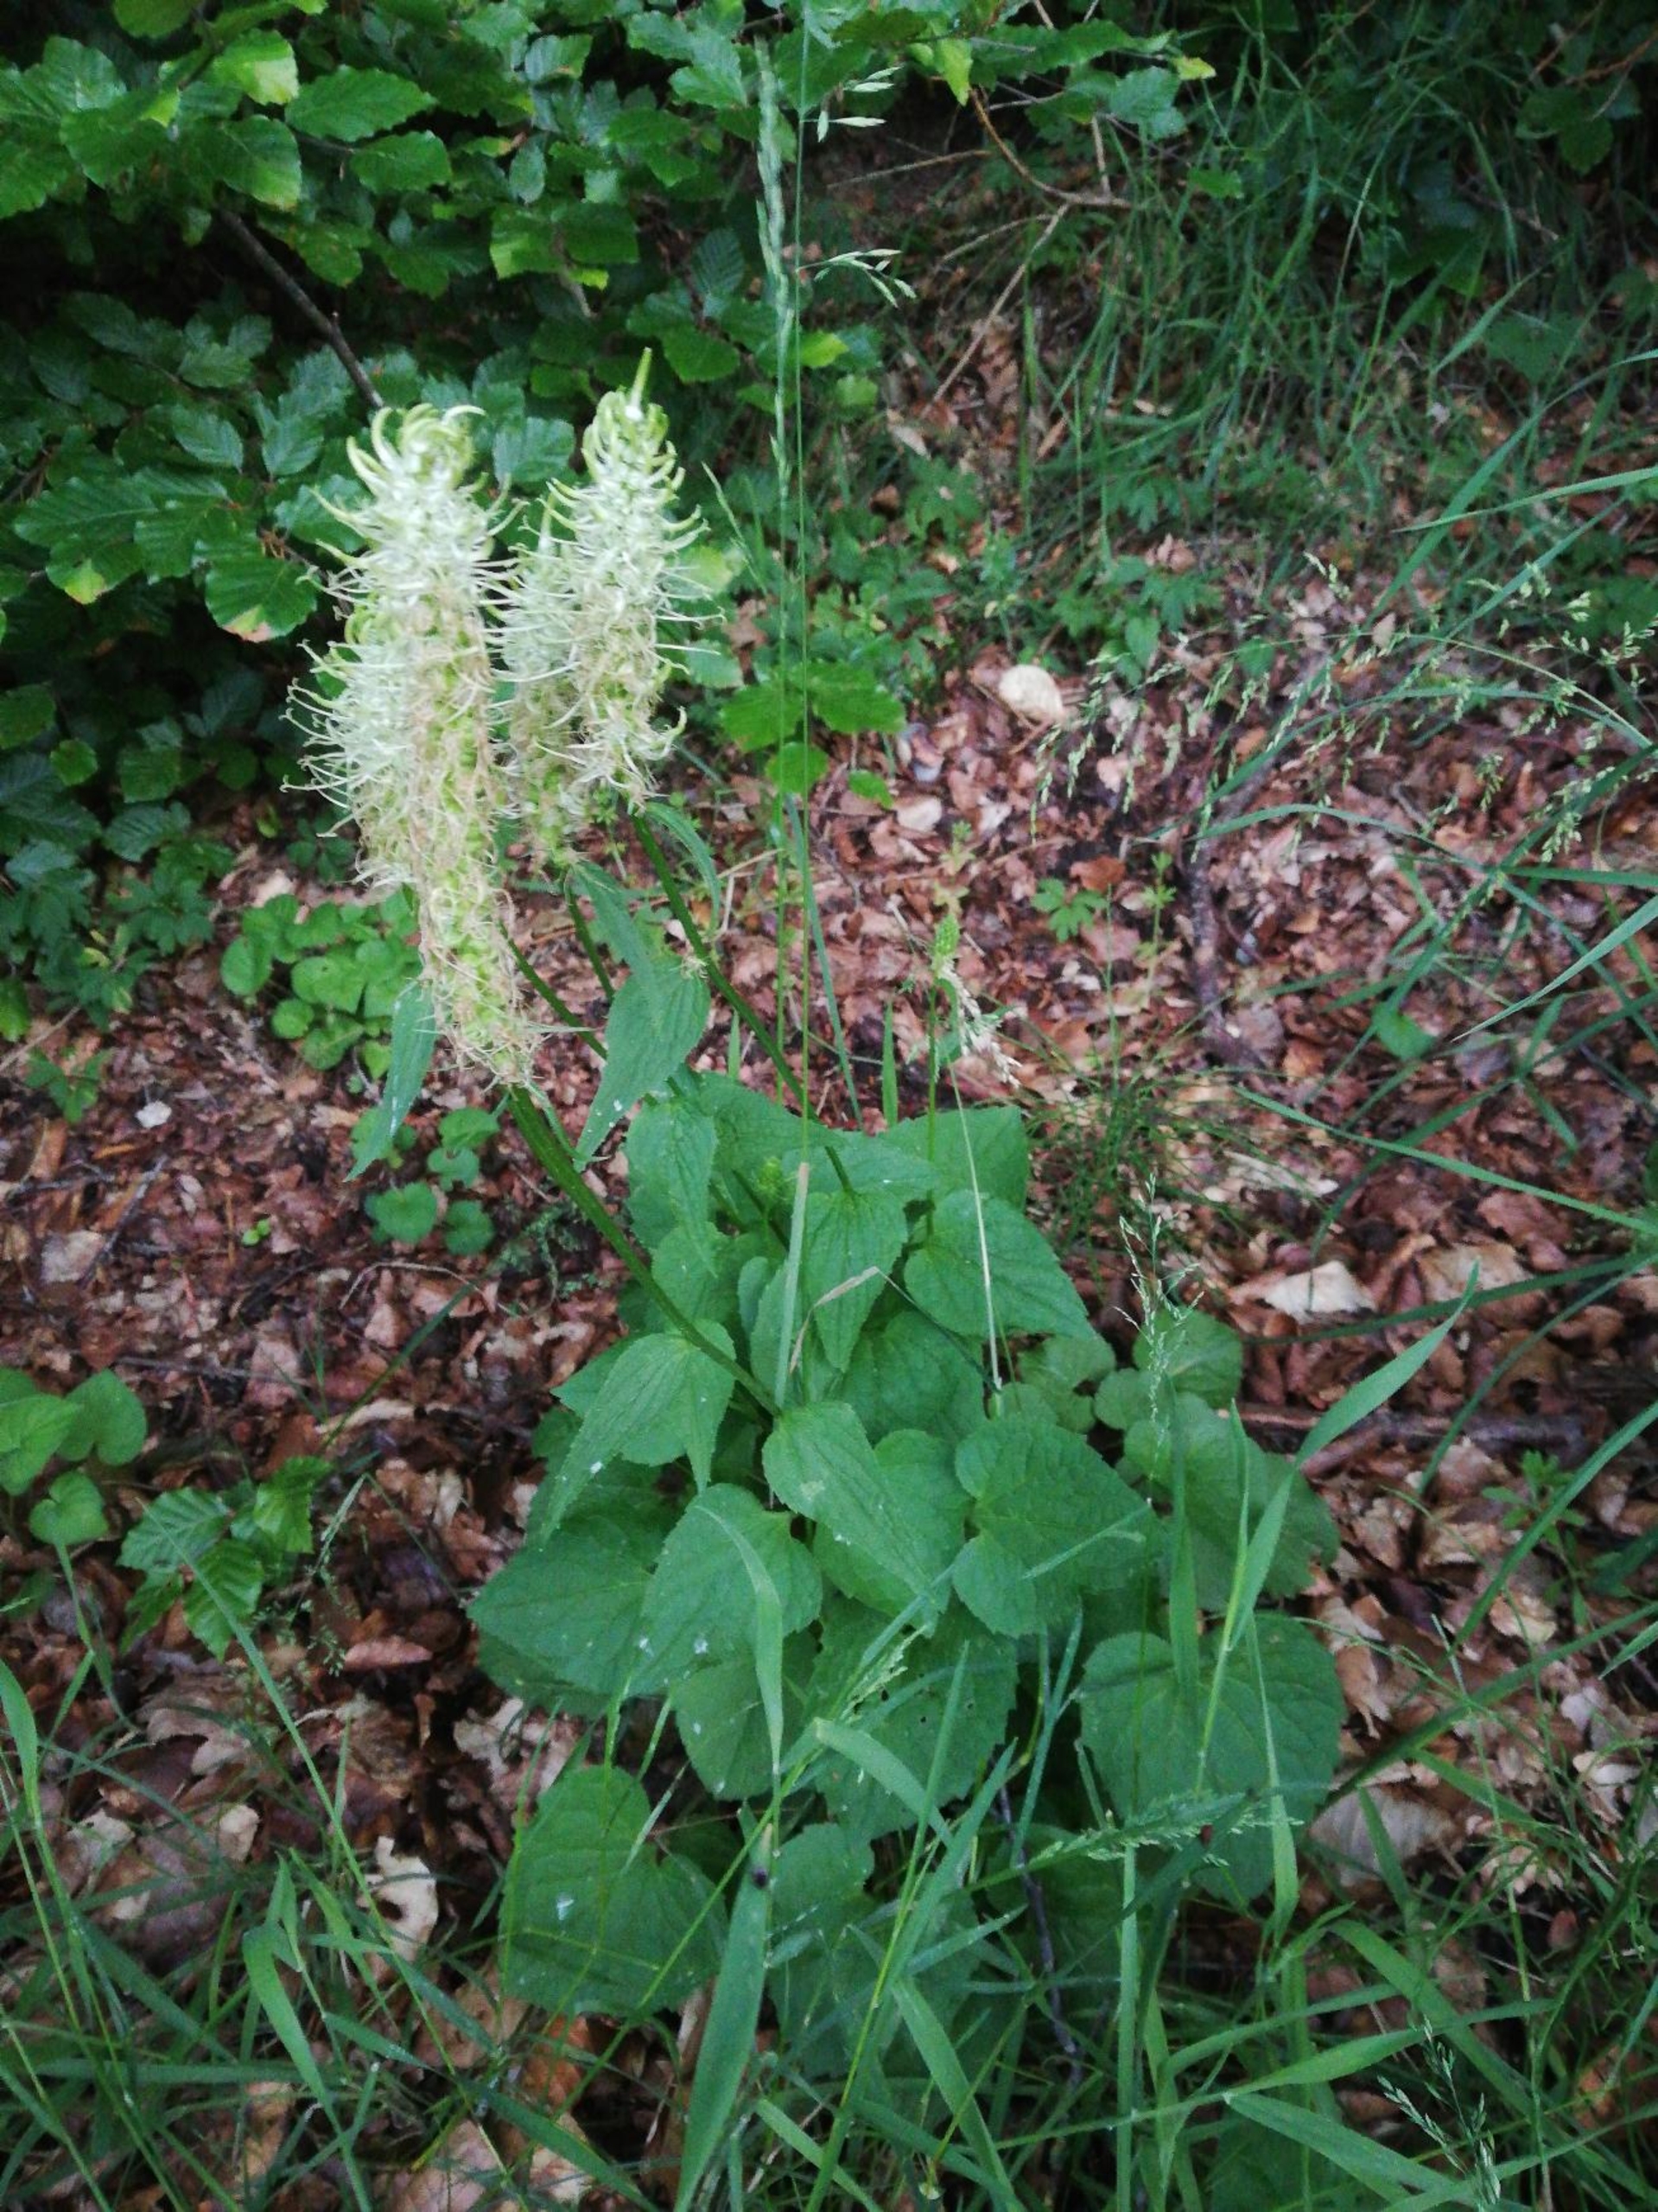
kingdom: Plantae
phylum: Tracheophyta
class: Magnoliopsida
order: Asterales
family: Campanulaceae
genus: Phyteuma
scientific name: Phyteuma spicatum
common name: Aks-rapunsel
